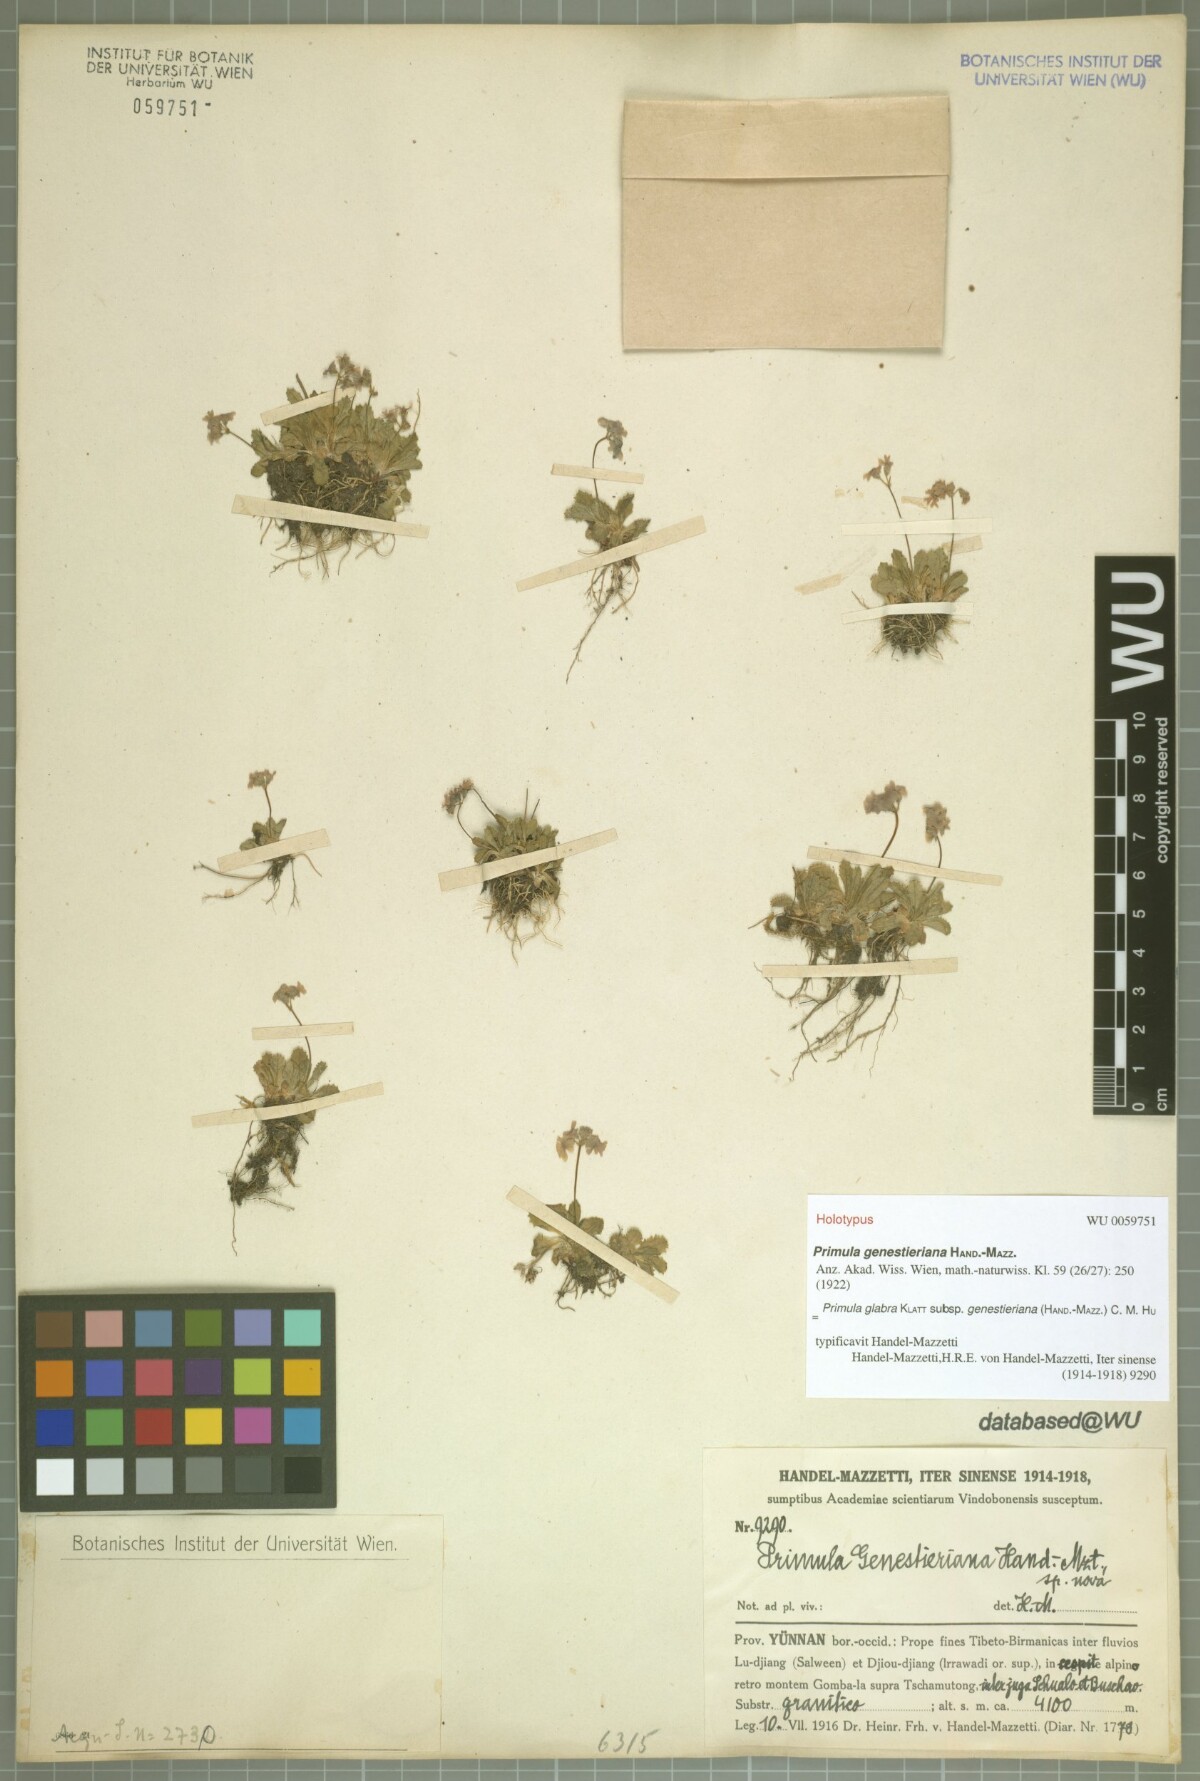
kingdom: Plantae
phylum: Tracheophyta
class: Magnoliopsida
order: Ericales
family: Primulaceae
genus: Primula
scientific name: Primula glabra
